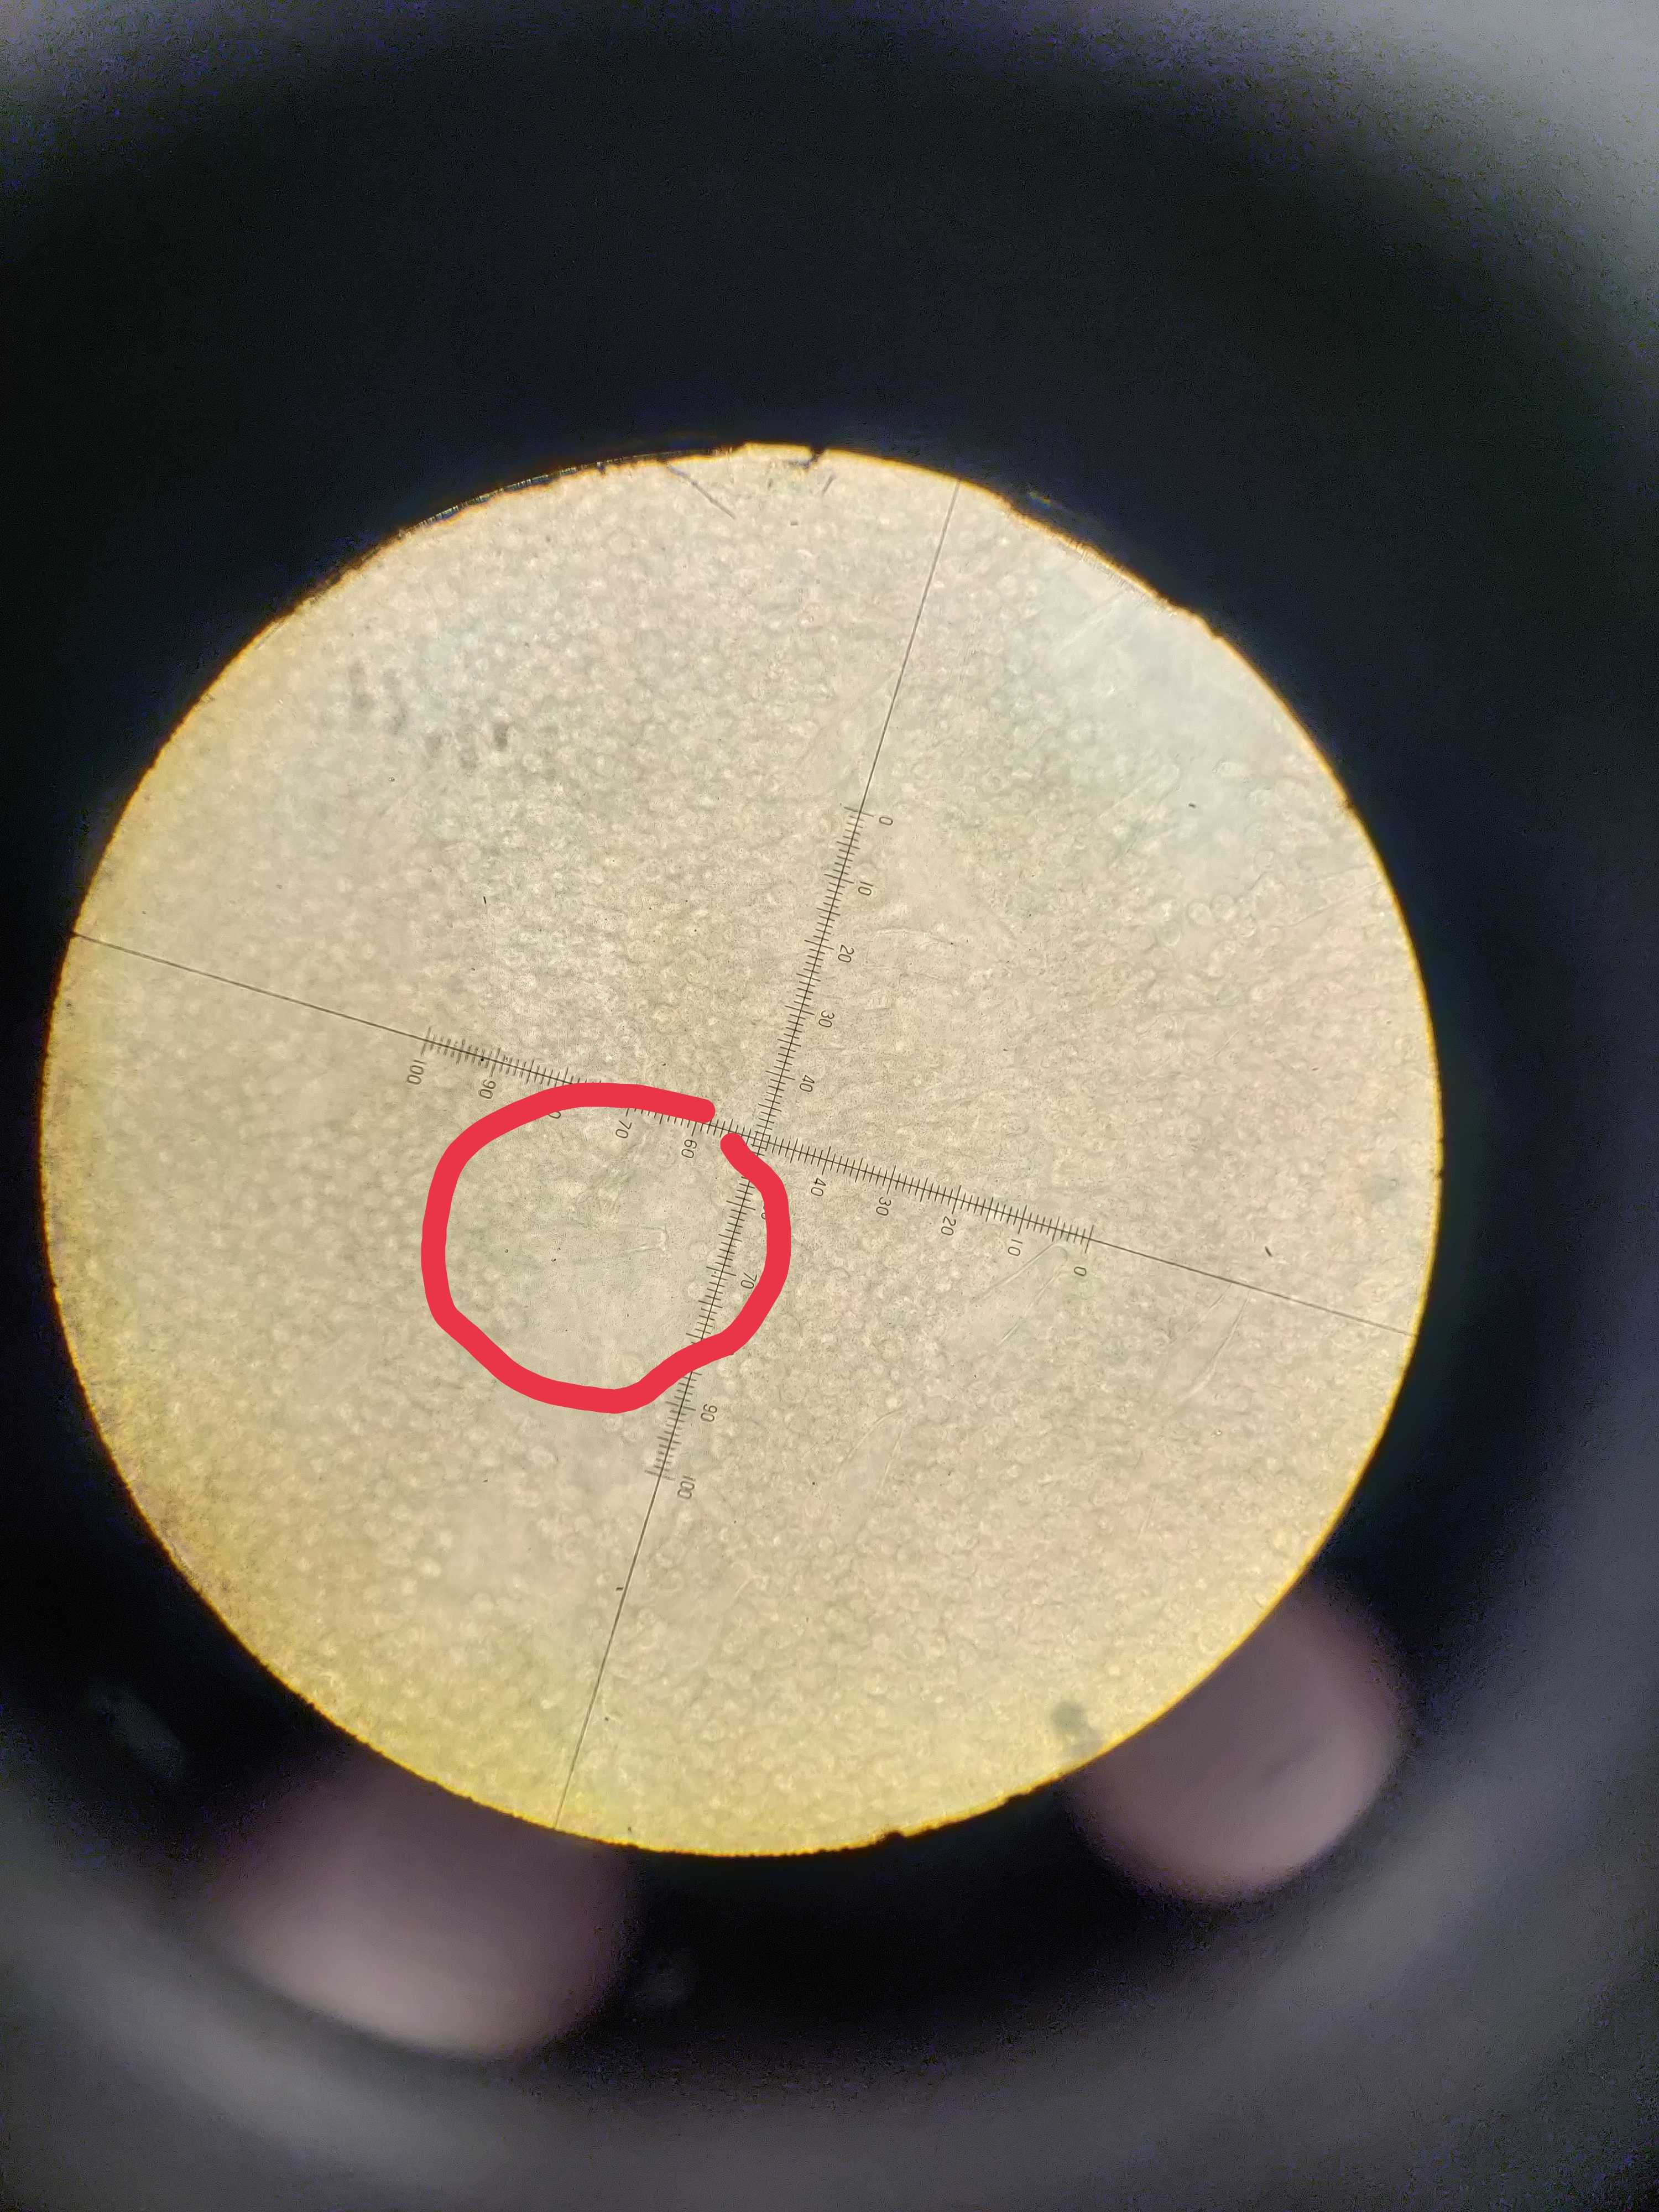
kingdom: Fungi
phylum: Basidiomycota
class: Agaricomycetes
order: Agaricales
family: Pluteaceae
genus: Pluteus
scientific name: Pluteus salicinus
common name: stiv skærmhat
